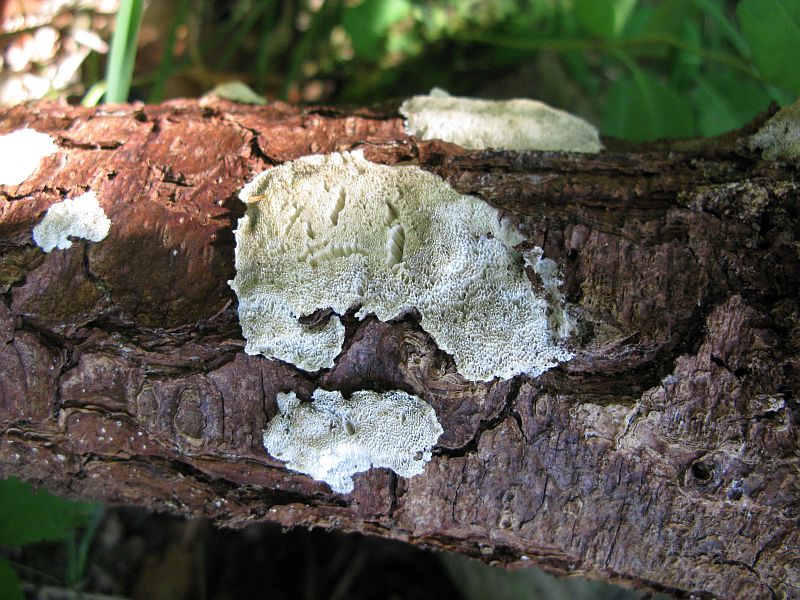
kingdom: Fungi
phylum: Basidiomycota
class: Agaricomycetes
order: Polyporales
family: Gelatoporiaceae
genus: Cinereomyces
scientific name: Cinereomyces lindbladii
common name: almindelig gråporesvamp
